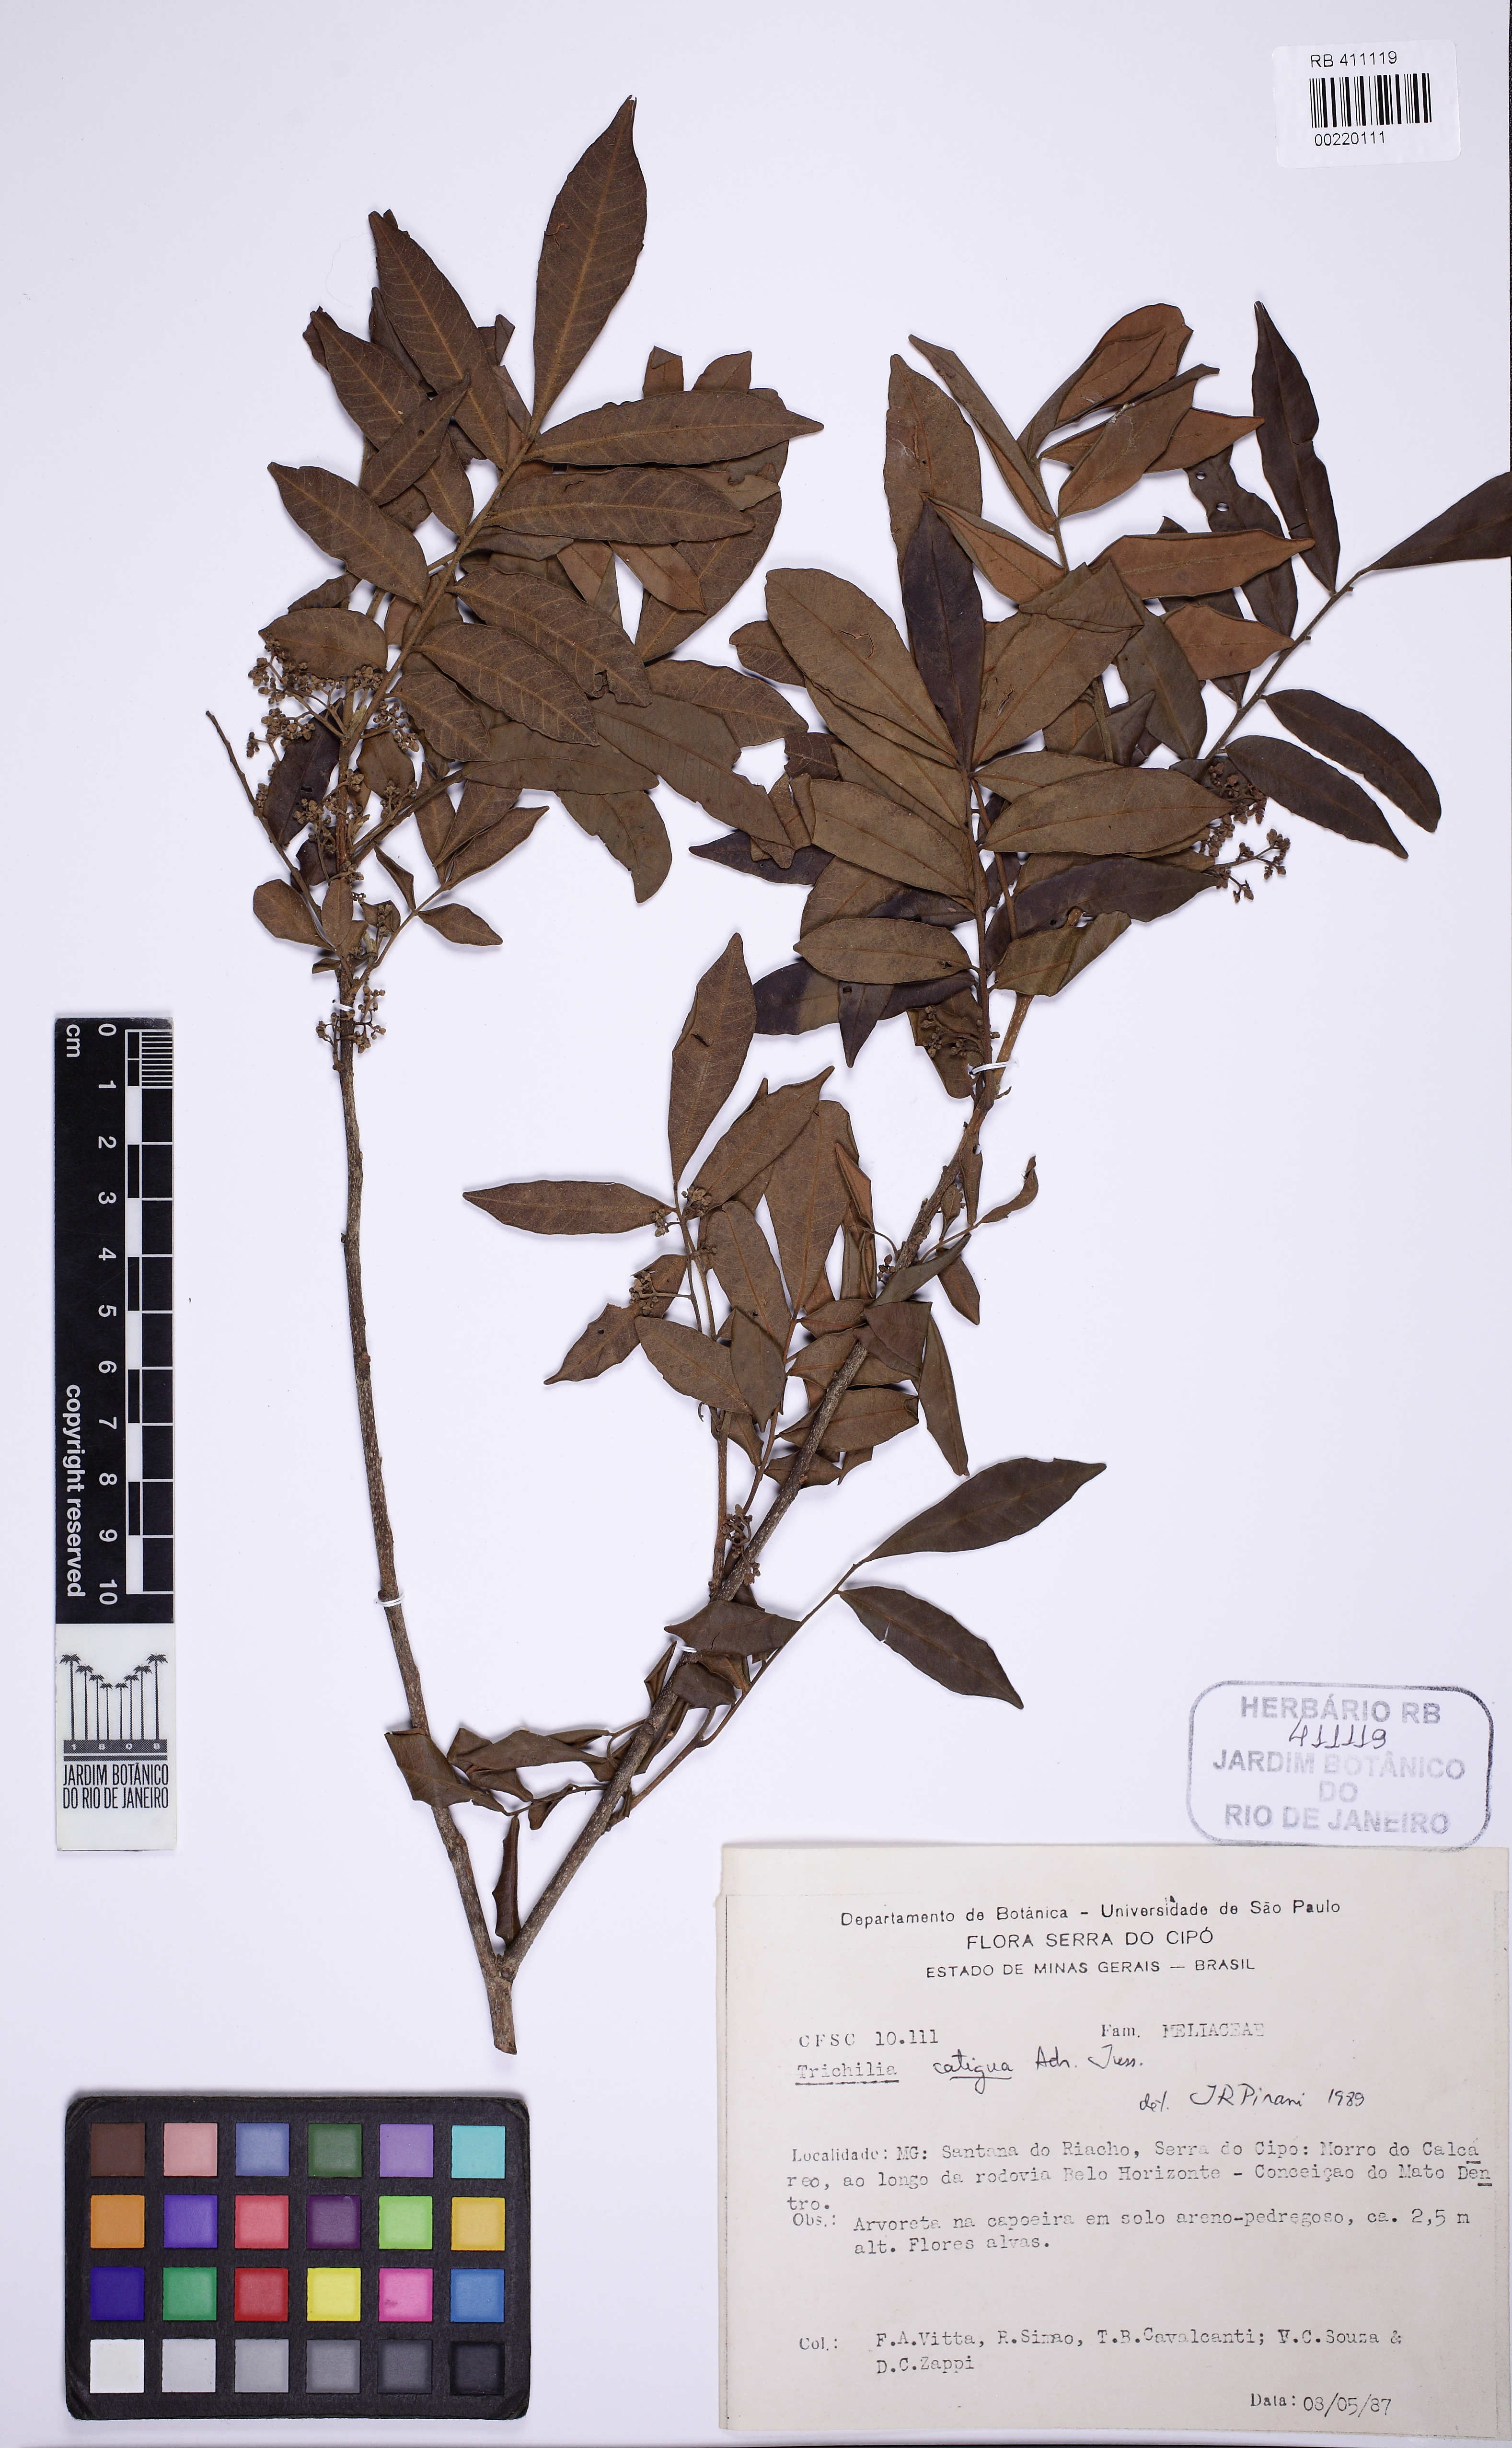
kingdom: Plantae
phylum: Tracheophyta
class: Magnoliopsida
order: Sapindales
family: Meliaceae
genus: Trichilia
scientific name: Trichilia catigua
